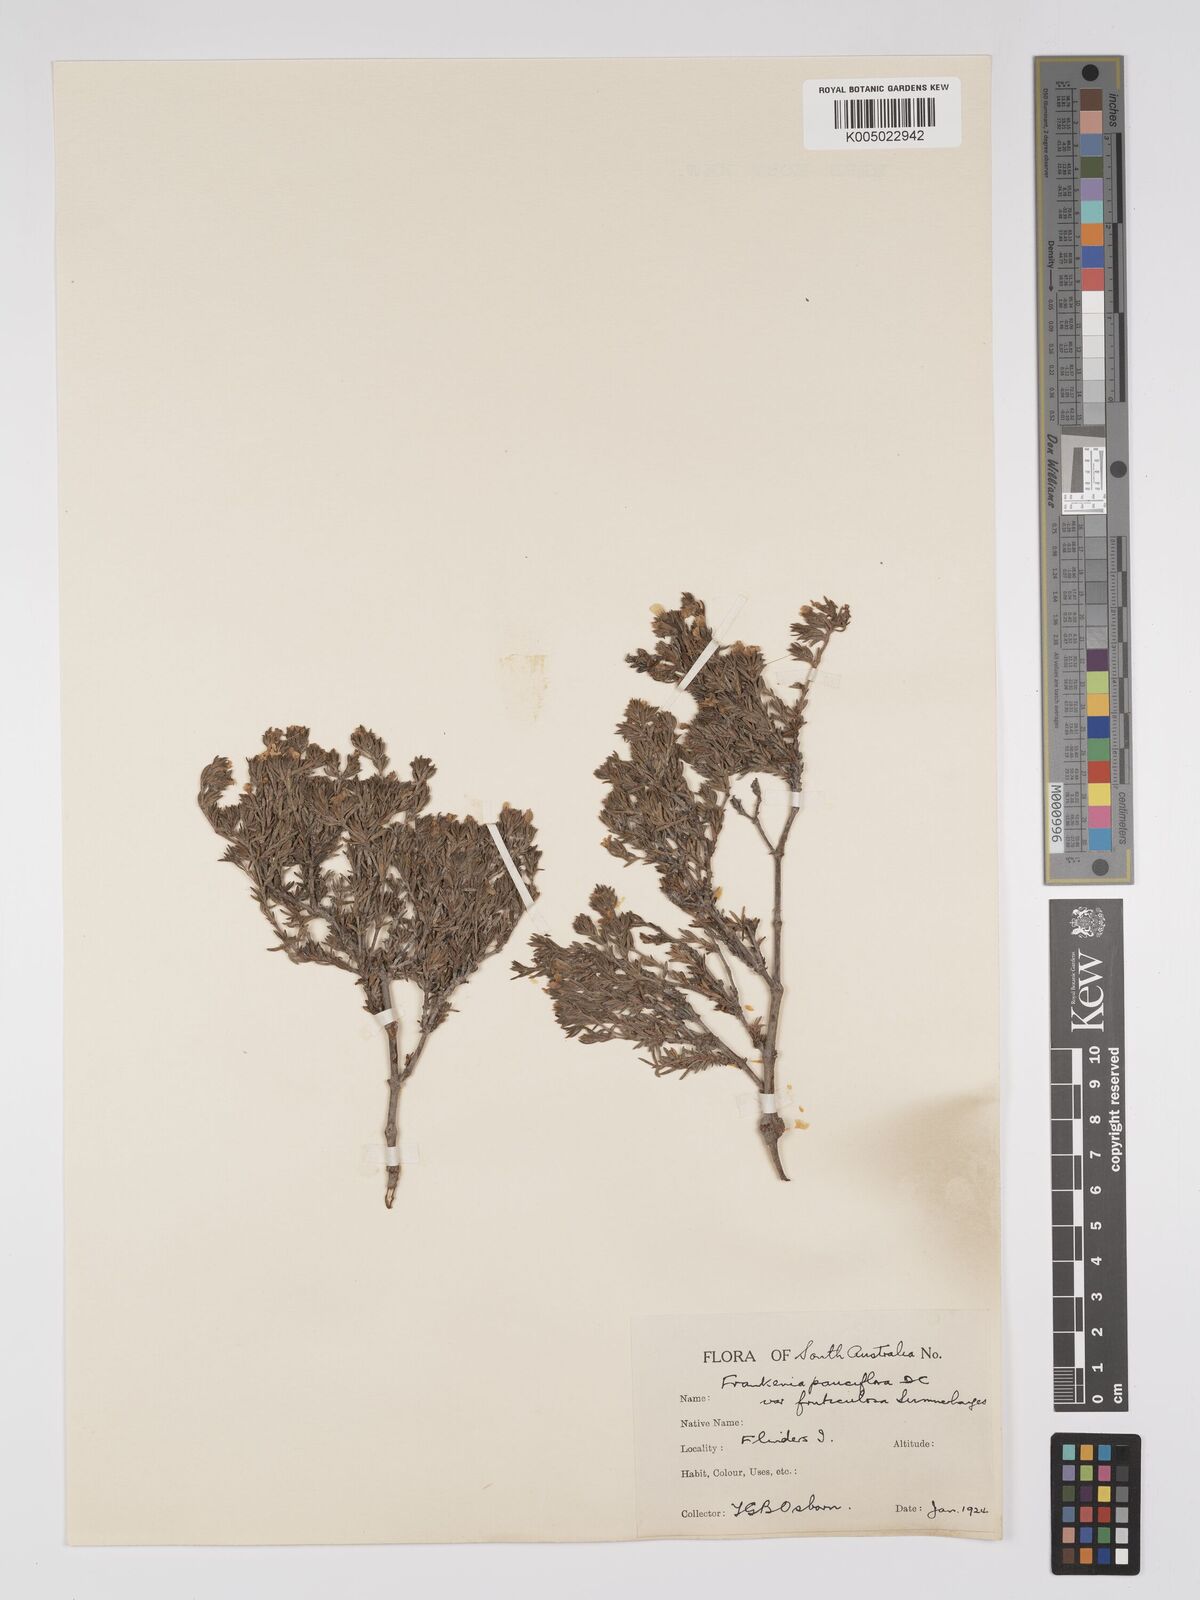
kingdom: Plantae
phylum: Tracheophyta
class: Magnoliopsida
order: Caryophyllales
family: Frankeniaceae
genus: Frankenia
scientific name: Frankenia pauciflora
